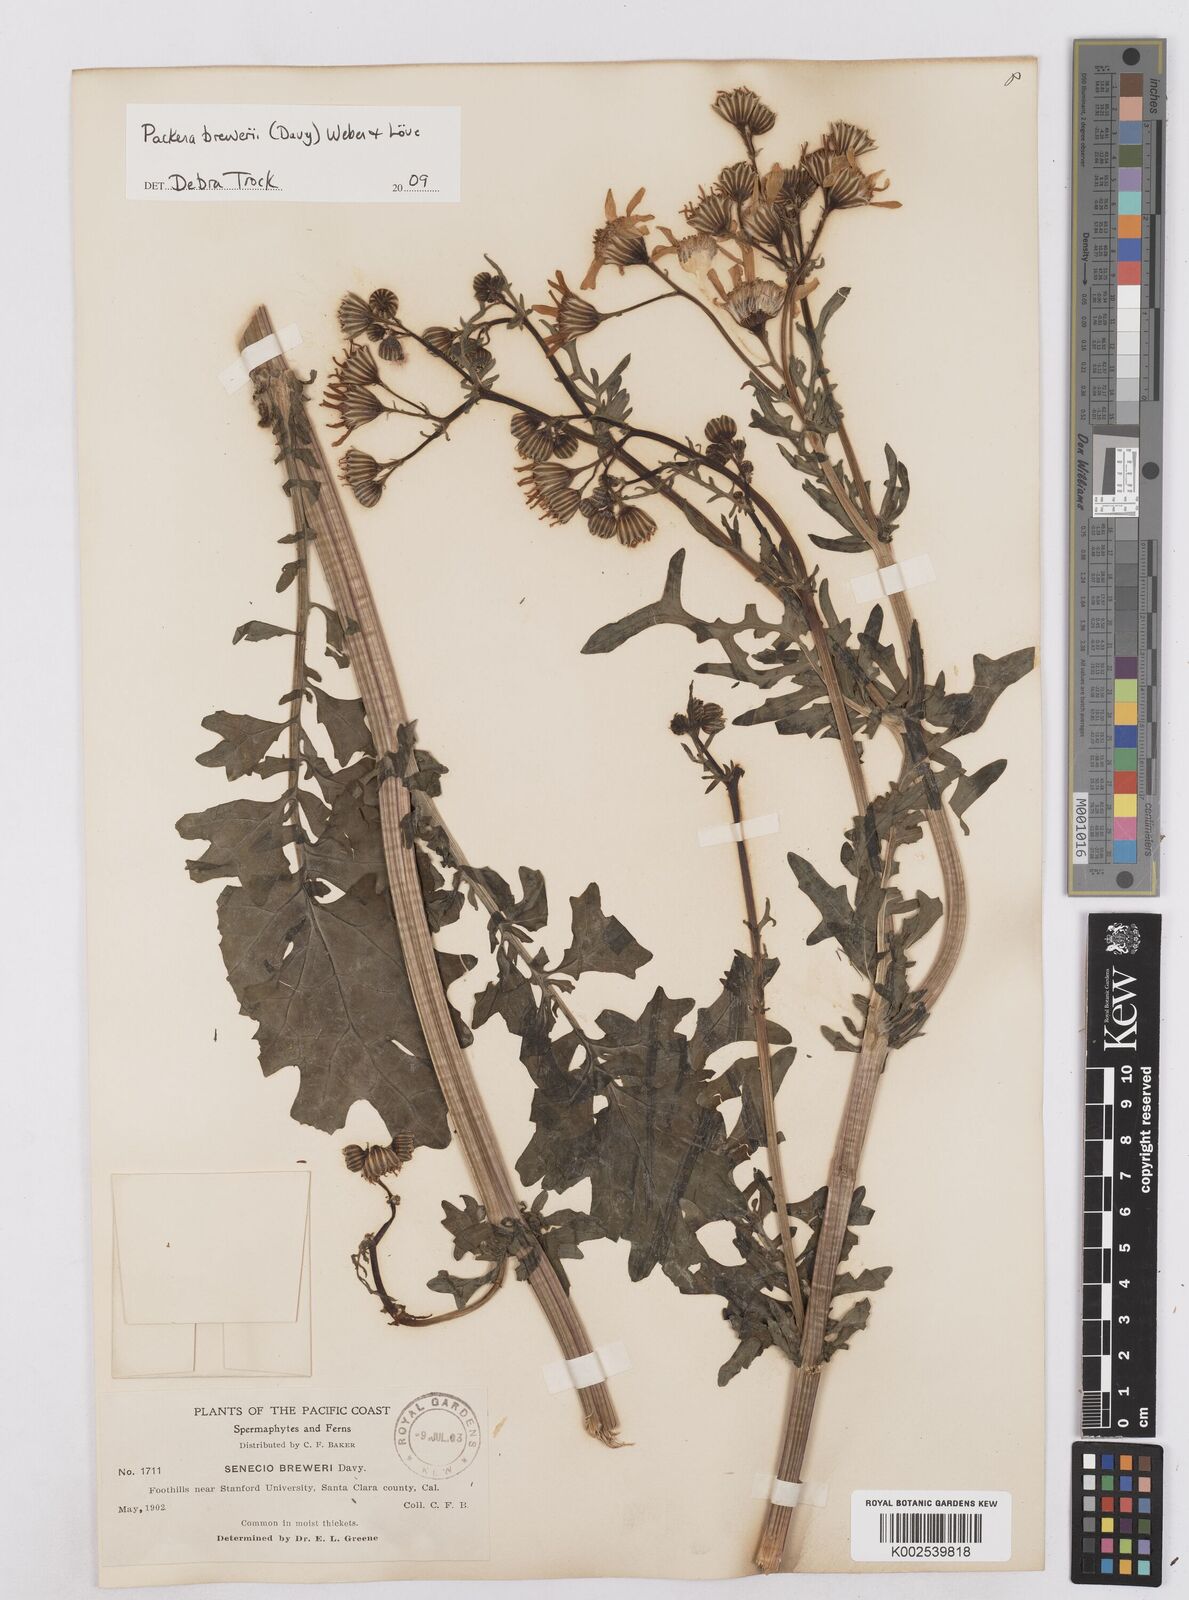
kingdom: Plantae
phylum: Tracheophyta
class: Magnoliopsida
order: Asterales
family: Asteraceae
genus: Packera
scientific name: Packera breweri
